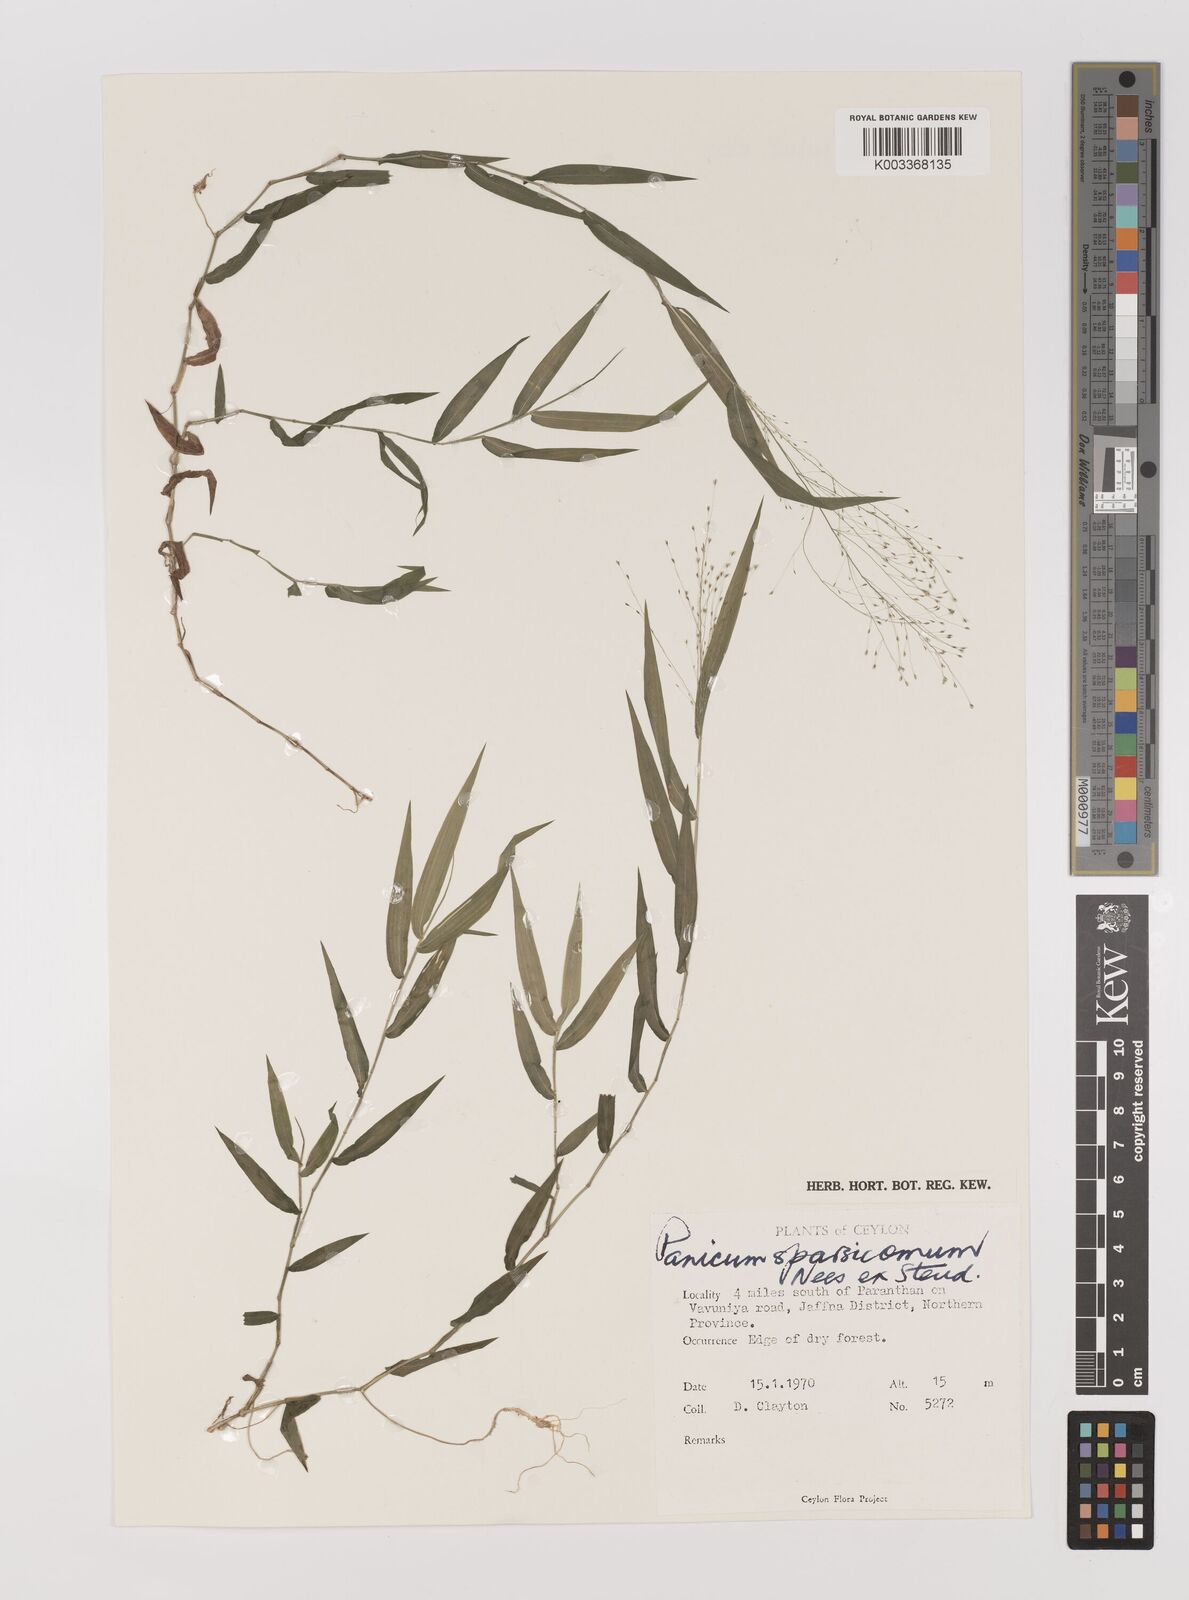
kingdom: Plantae
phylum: Tracheophyta
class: Liliopsida
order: Poales
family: Poaceae
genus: Panicum
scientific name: Panicum sparsicomum
